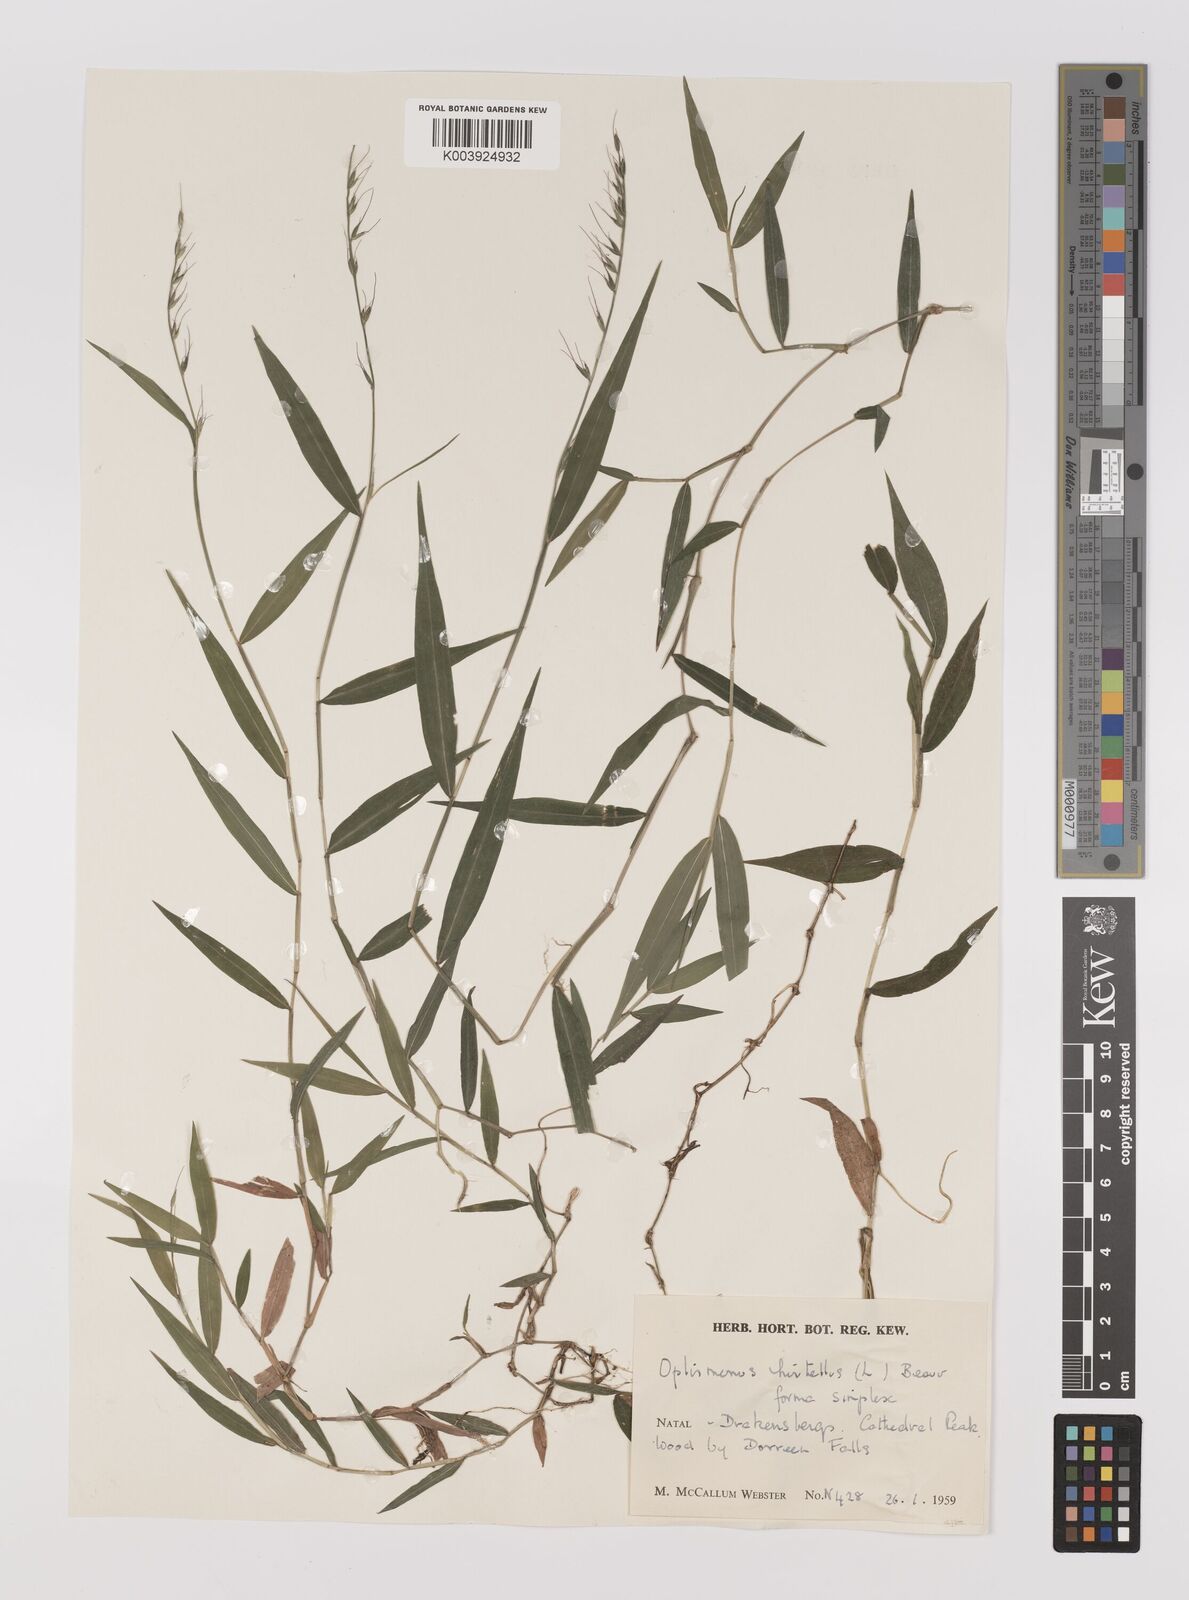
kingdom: Plantae
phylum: Tracheophyta
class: Liliopsida
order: Poales
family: Poaceae
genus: Oplismenus
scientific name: Oplismenus undulatifolius
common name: Wavyleaf basketgrass
